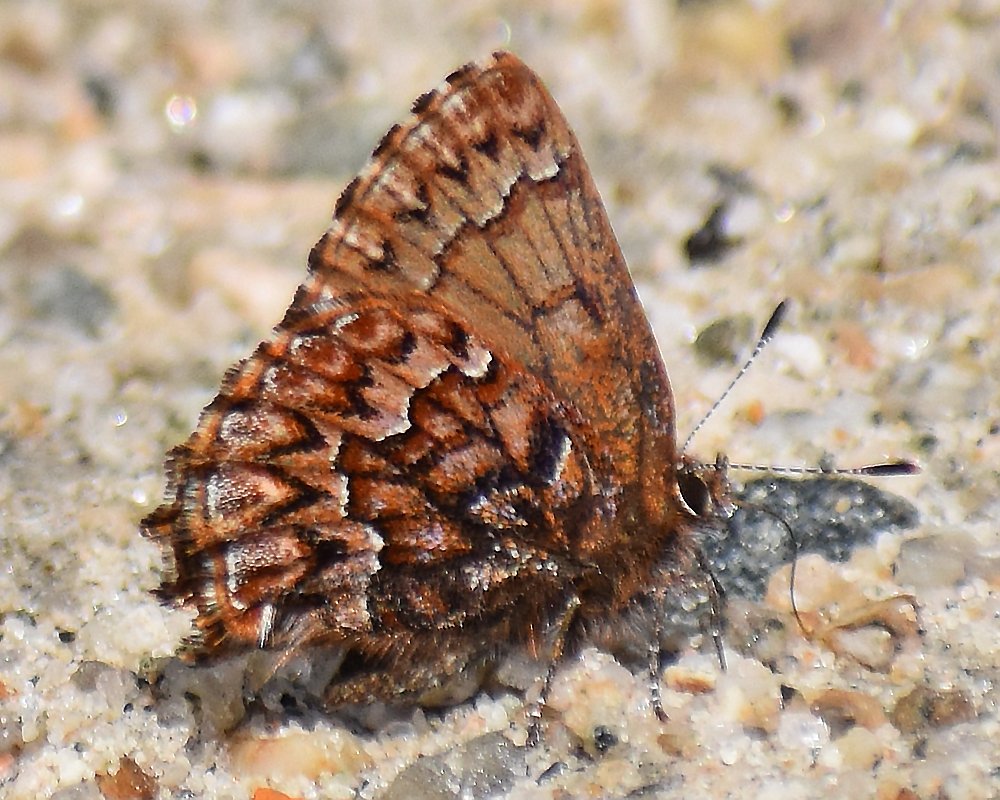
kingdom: Animalia
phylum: Arthropoda
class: Insecta
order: Lepidoptera
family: Lycaenidae
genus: Incisalia
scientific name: Incisalia eryphon
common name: Western Pine Elfin
